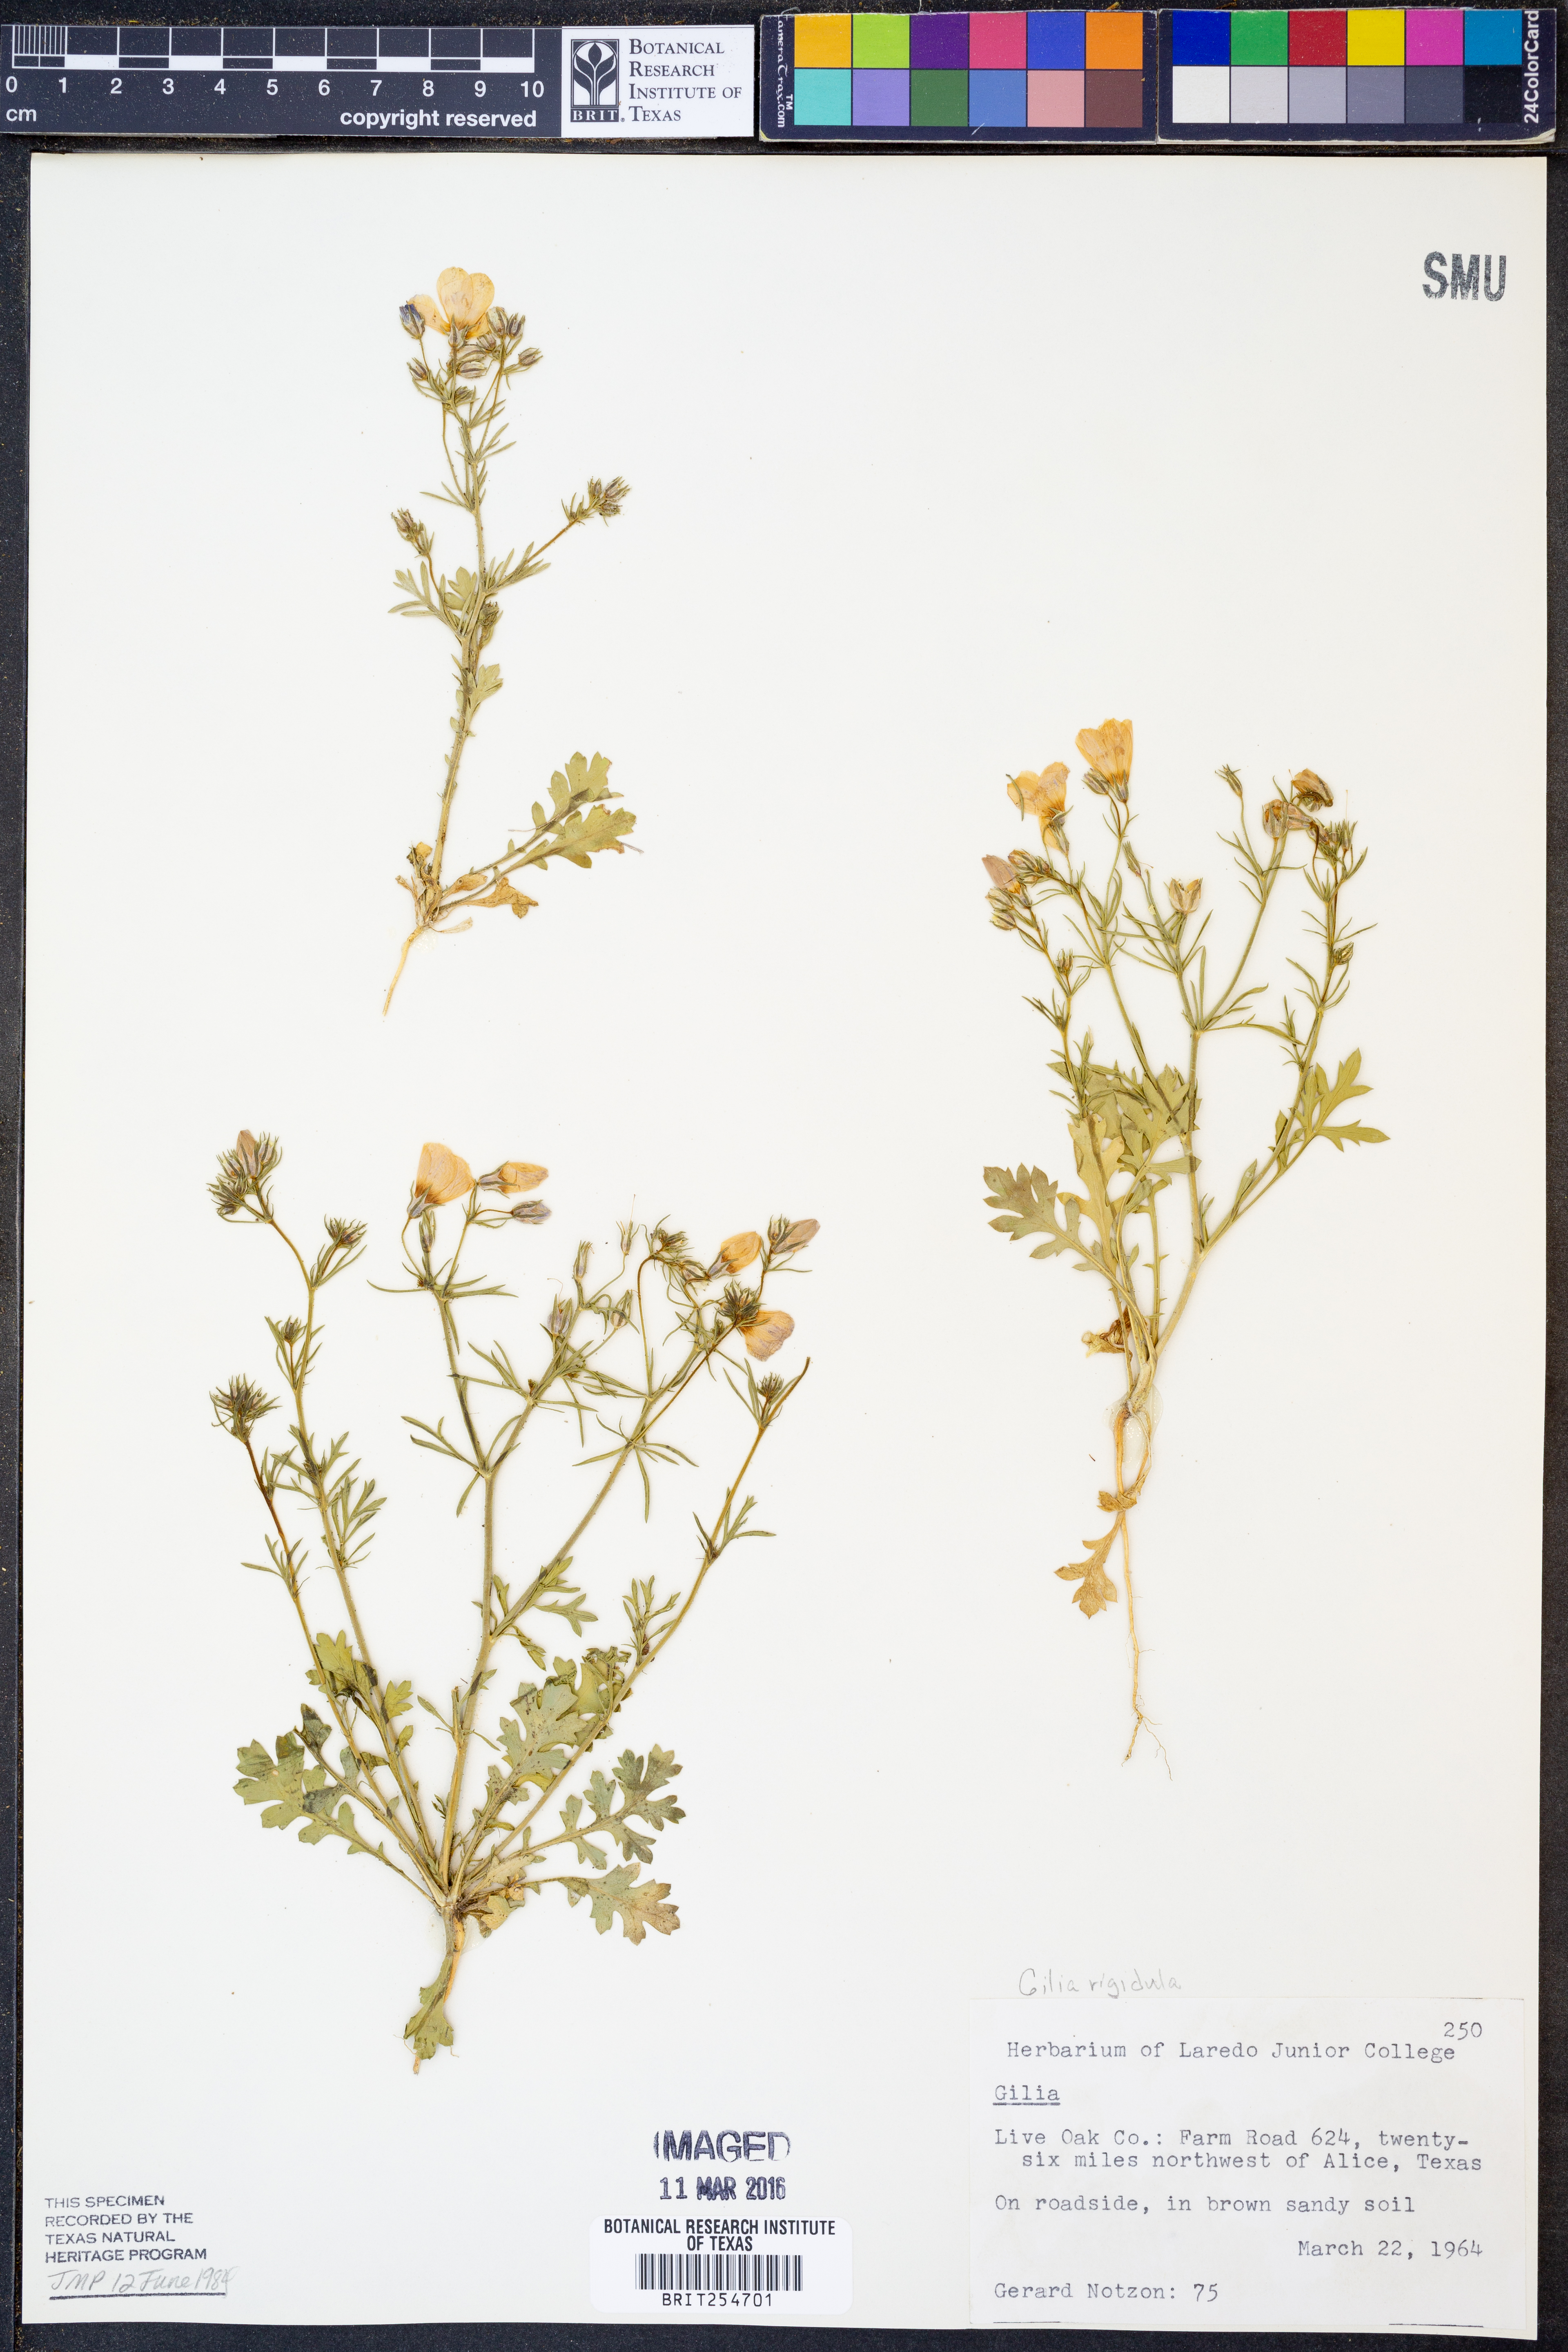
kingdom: Plantae
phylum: Tracheophyta
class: Magnoliopsida
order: Ericales
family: Polemoniaceae
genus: Giliastrum
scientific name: Giliastrum rigidulum
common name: Bluebowls
